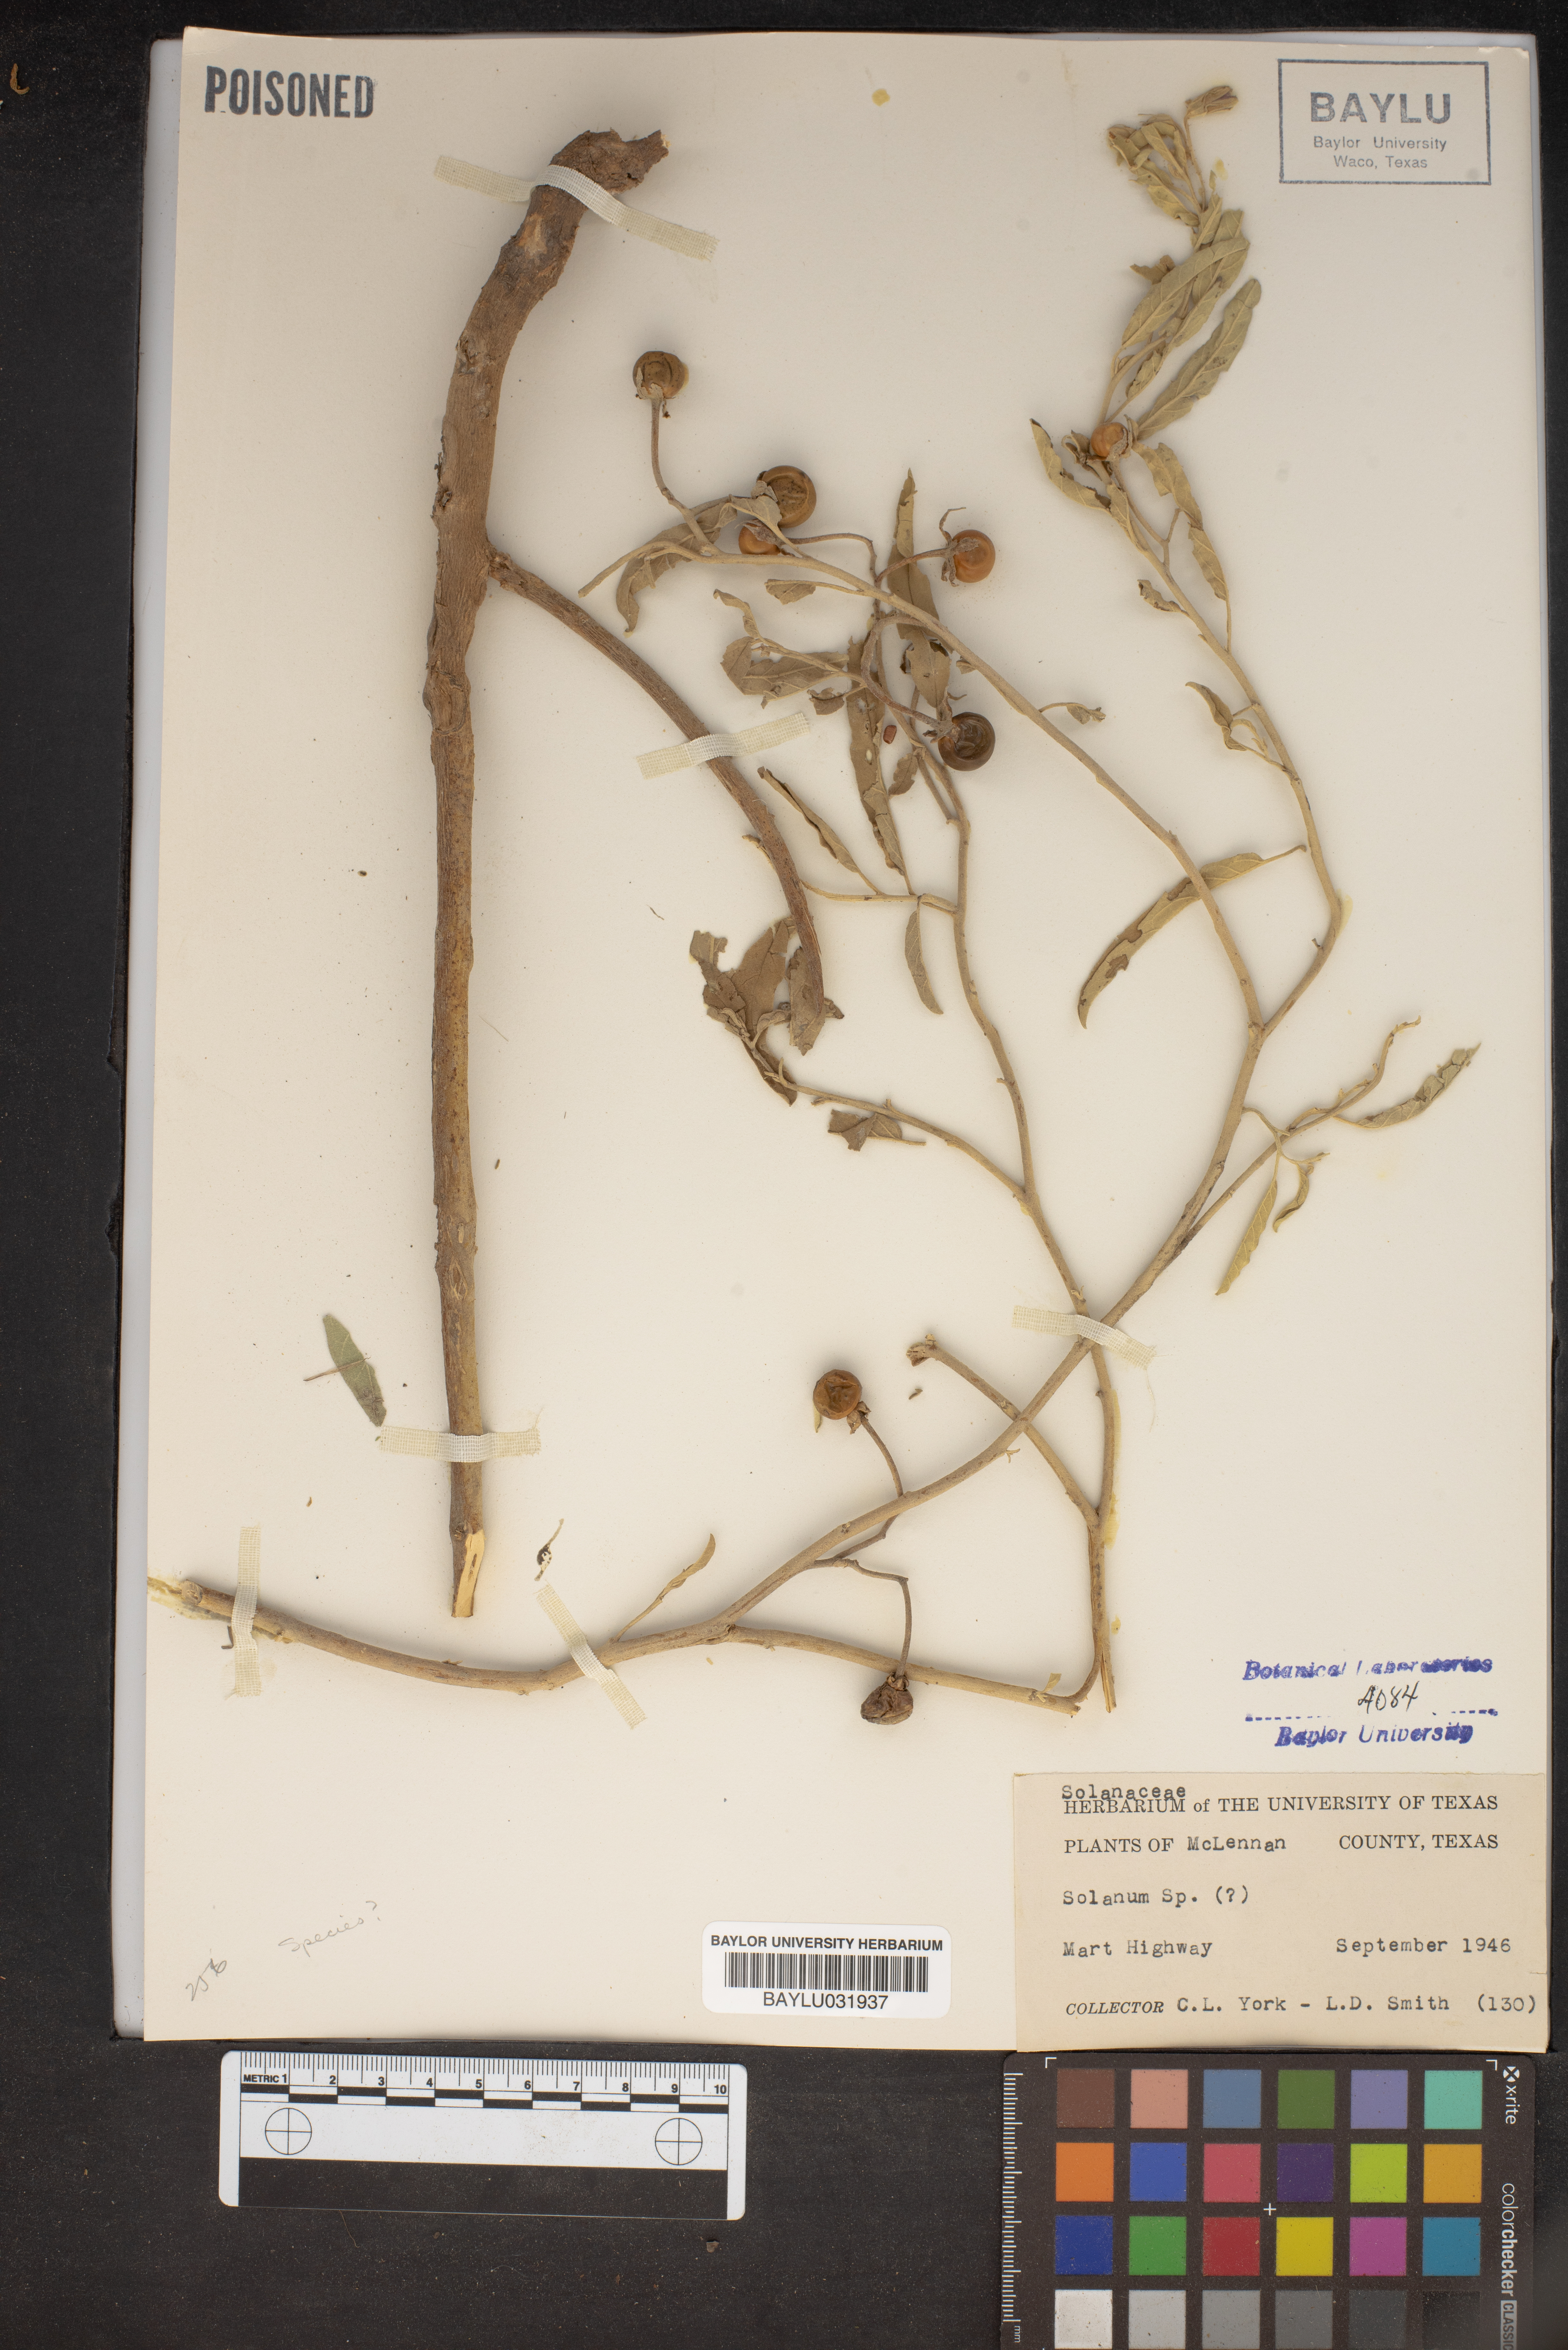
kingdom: Plantae
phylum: Tracheophyta
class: Magnoliopsida
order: Solanales
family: Solanaceae
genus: Solanum
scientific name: Solanum
